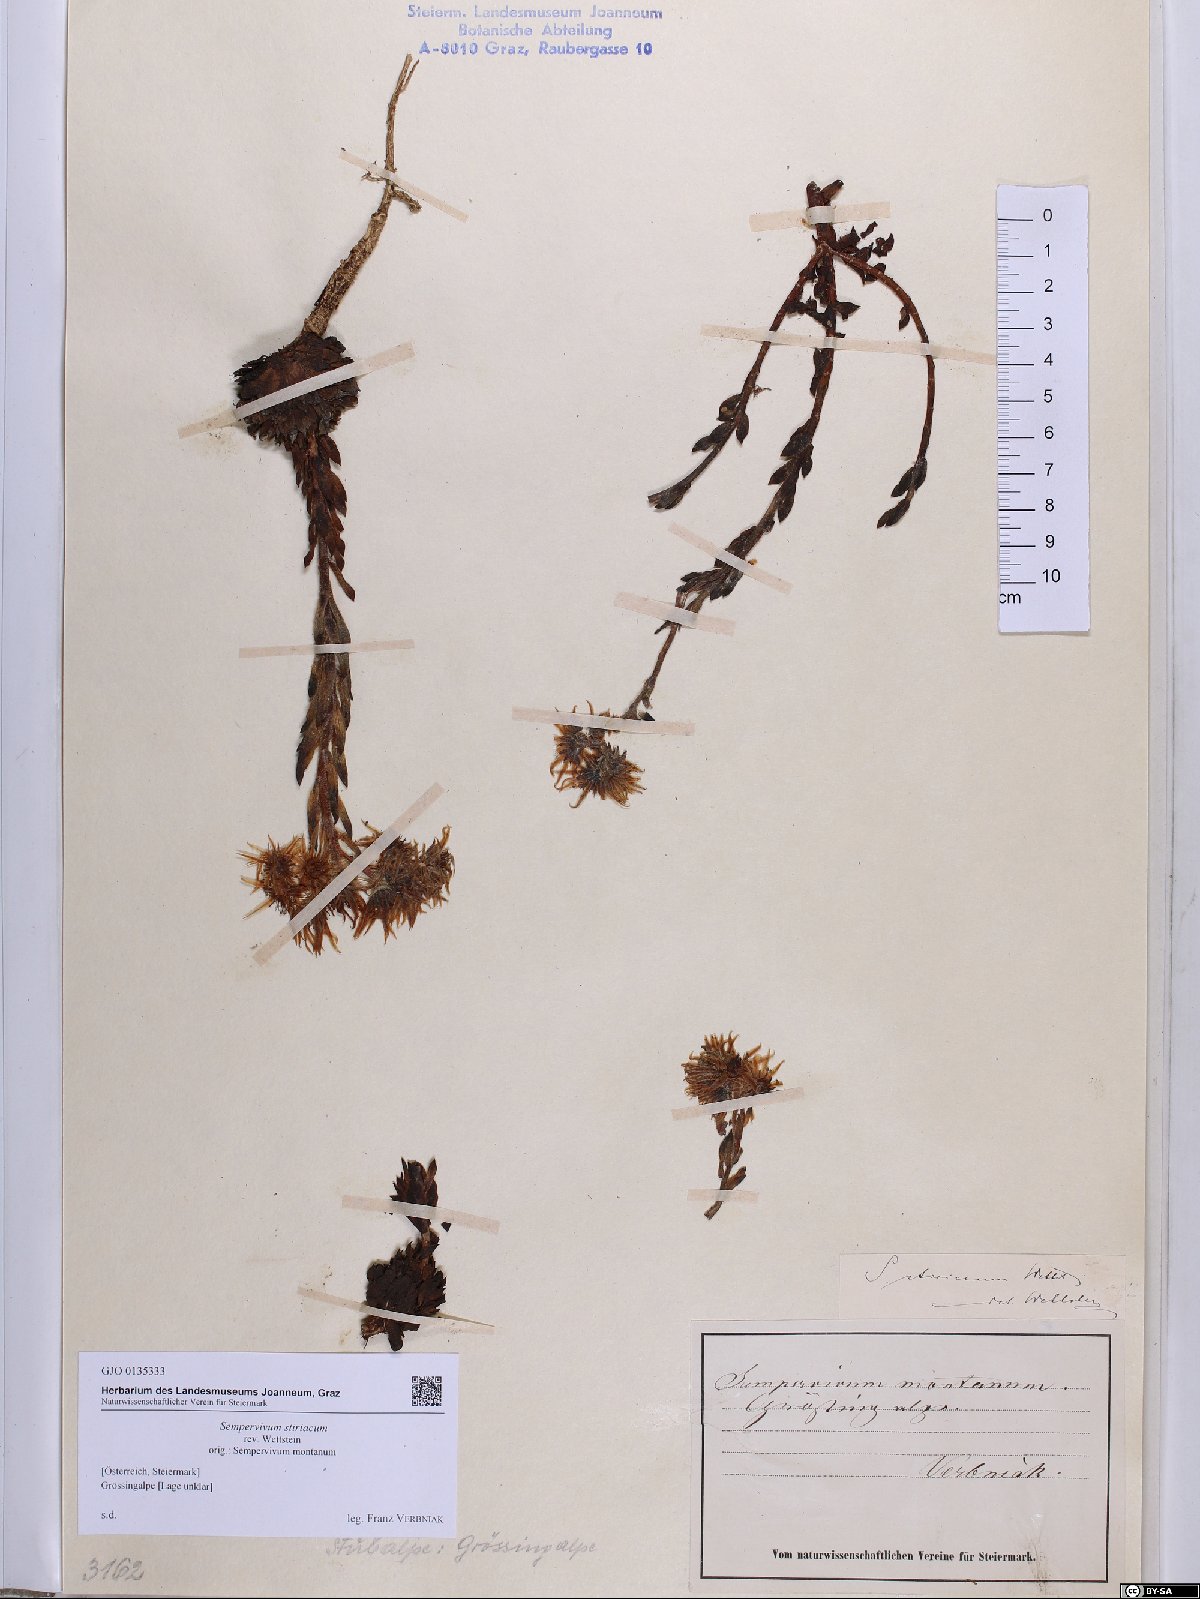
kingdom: Plantae
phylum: Tracheophyta
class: Magnoliopsida
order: Saxifragales
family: Crassulaceae
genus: Sempervivum
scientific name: Sempervivum montanum
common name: Mountain house-leek
